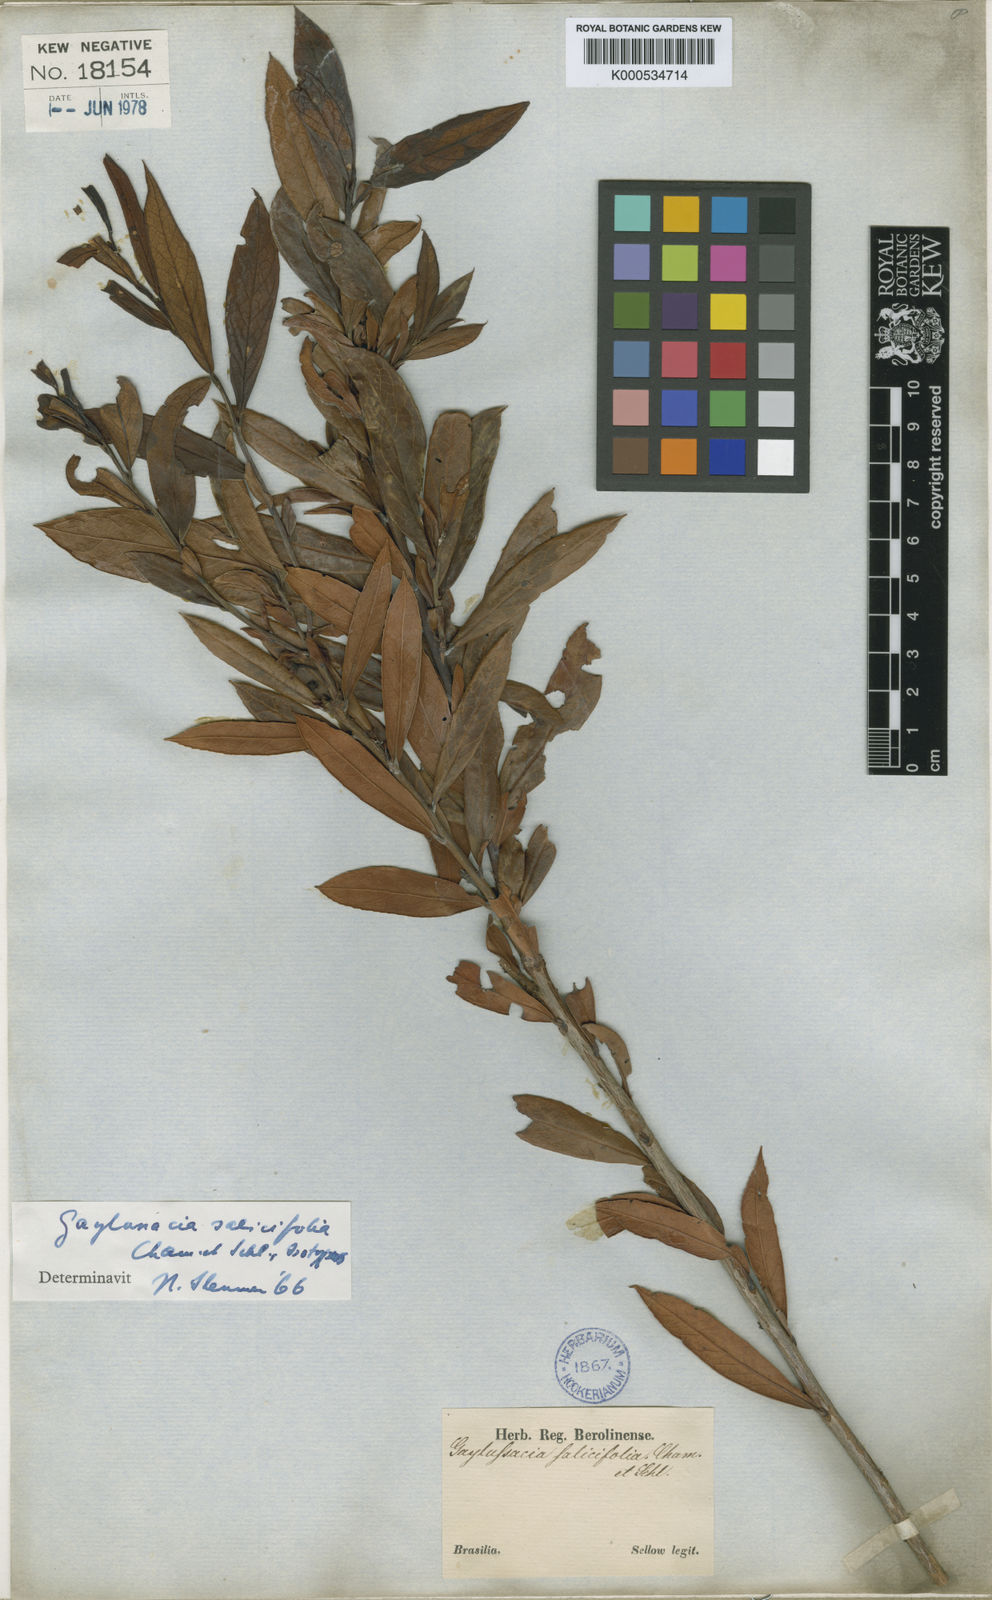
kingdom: Plantae
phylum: Tracheophyta
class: Magnoliopsida
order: Ericales
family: Ericaceae
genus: Gaylussacia
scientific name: Gaylussacia salicifolia
